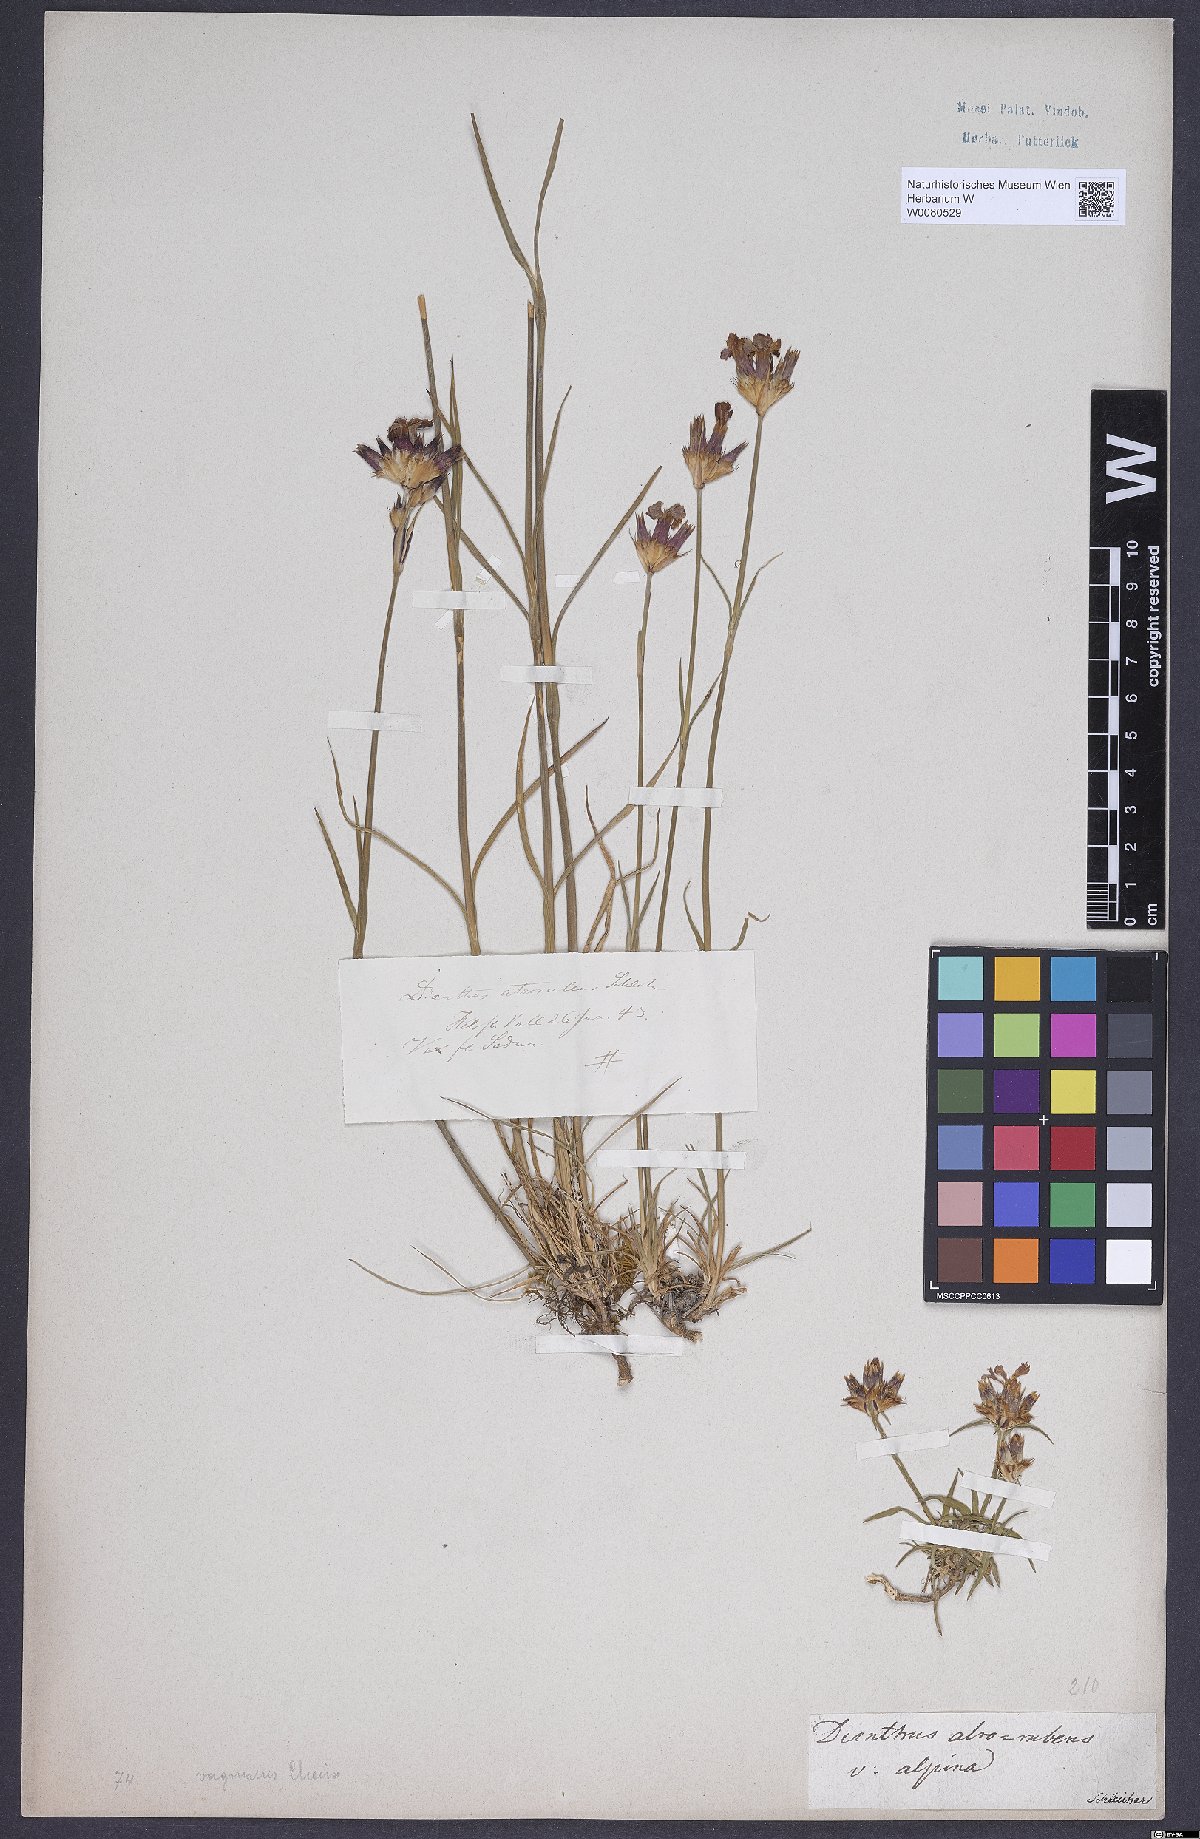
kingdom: Plantae
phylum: Tracheophyta
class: Magnoliopsida
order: Caryophyllales
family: Caryophyllaceae
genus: Dianthus
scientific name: Dianthus carthusianorum
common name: Carthusian pink
